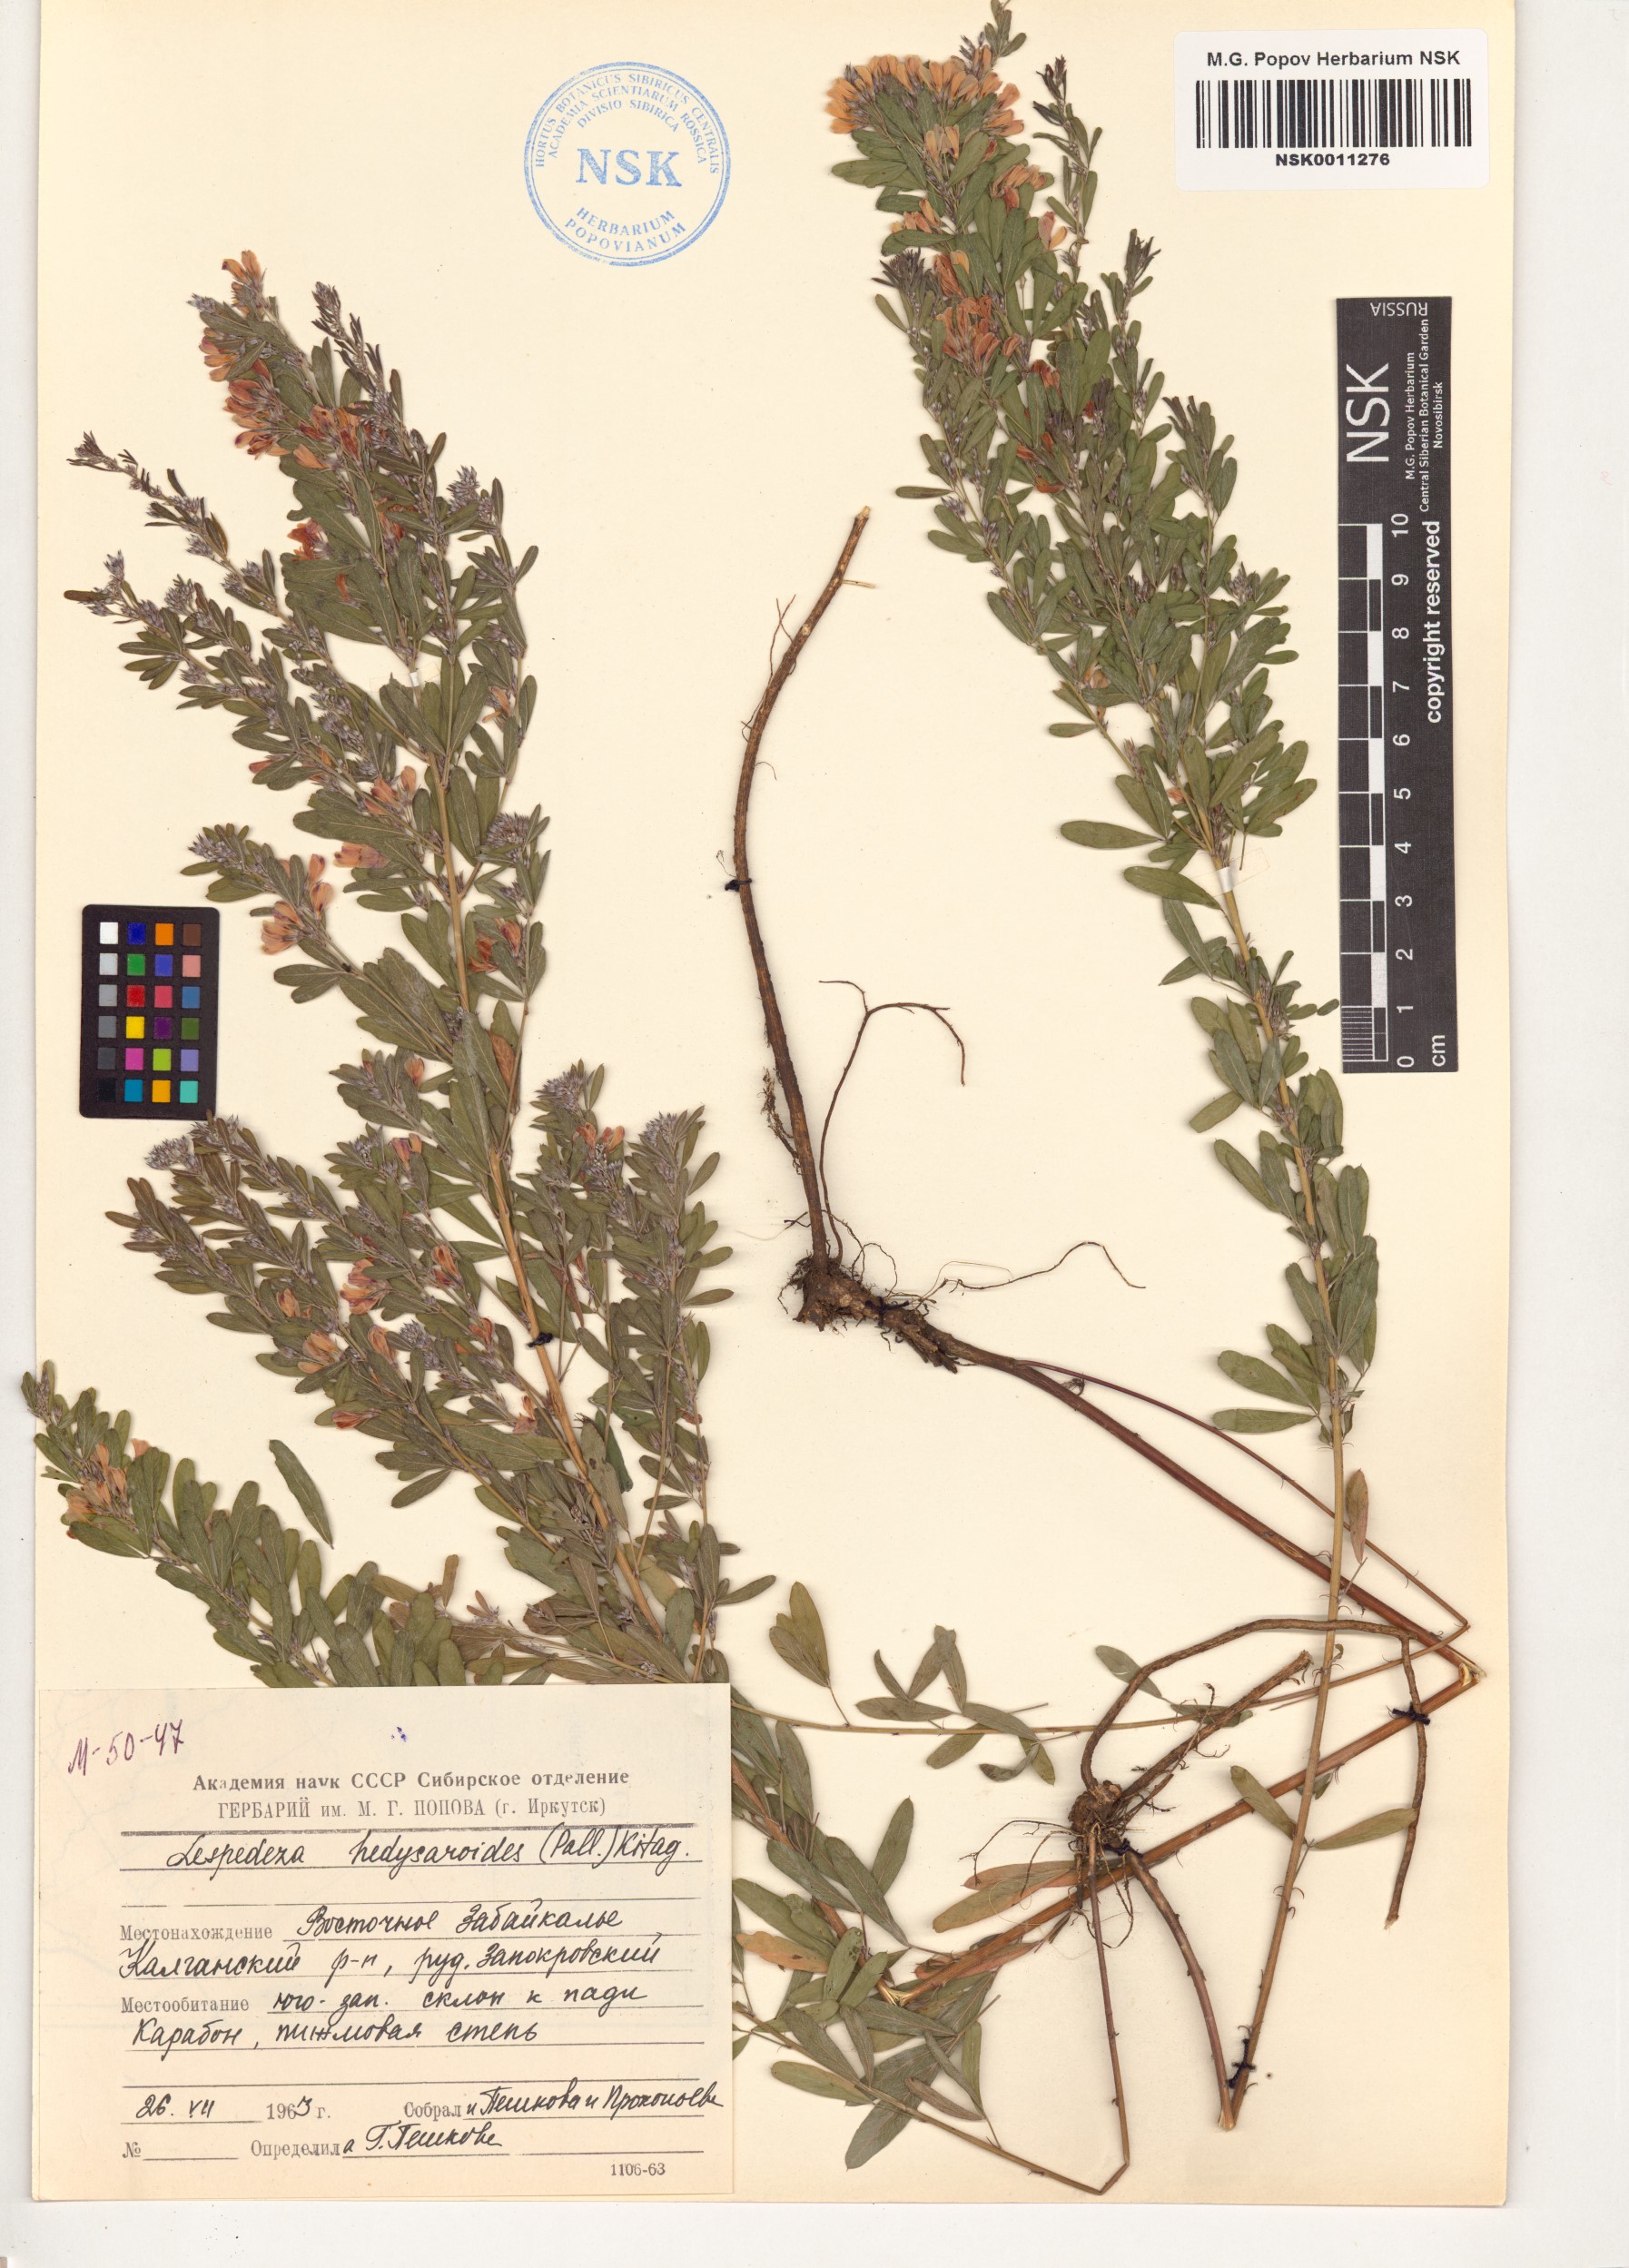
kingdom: Plantae
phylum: Tracheophyta
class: Magnoliopsida
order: Fabales
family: Fabaceae
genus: Lespedeza
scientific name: Lespedeza juncea
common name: Siberian lespedeza
